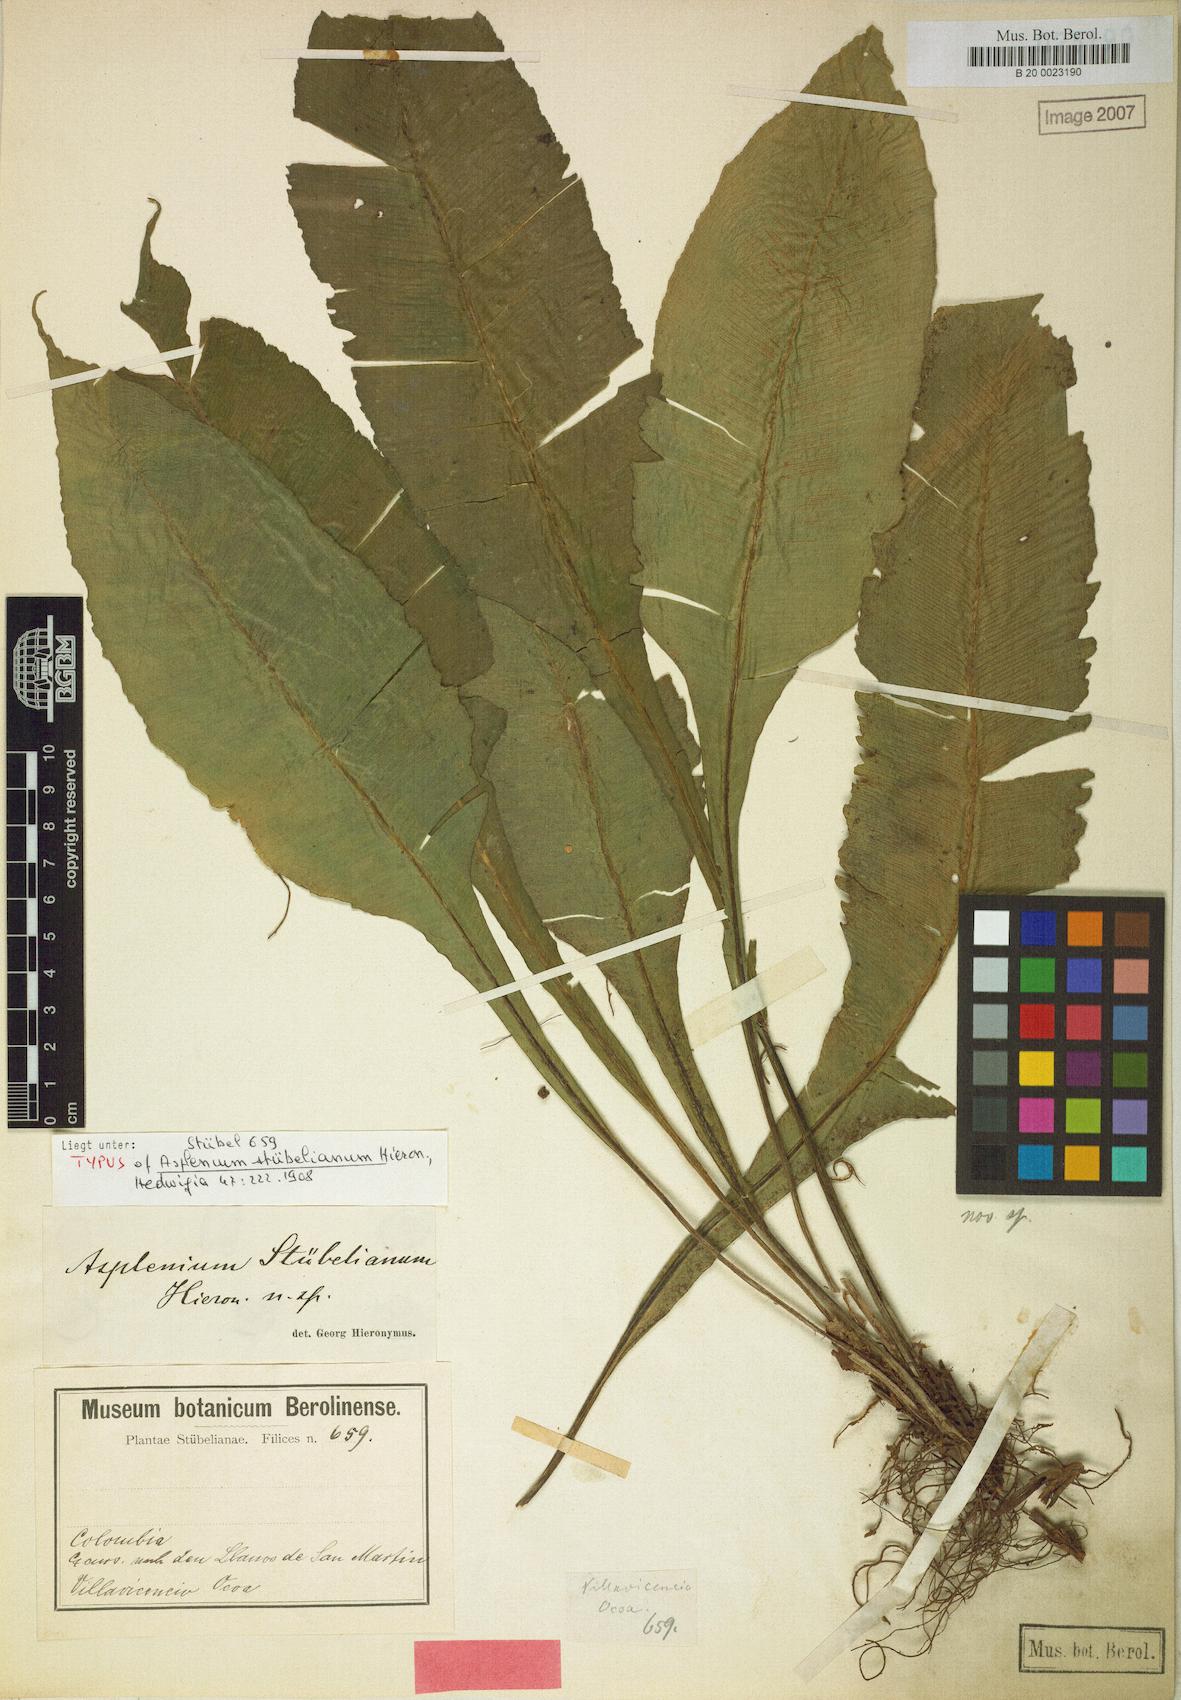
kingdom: Plantae
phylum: Tracheophyta
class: Polypodiopsida
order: Polypodiales
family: Aspleniaceae
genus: Asplenium
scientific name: Asplenium stubelianum
